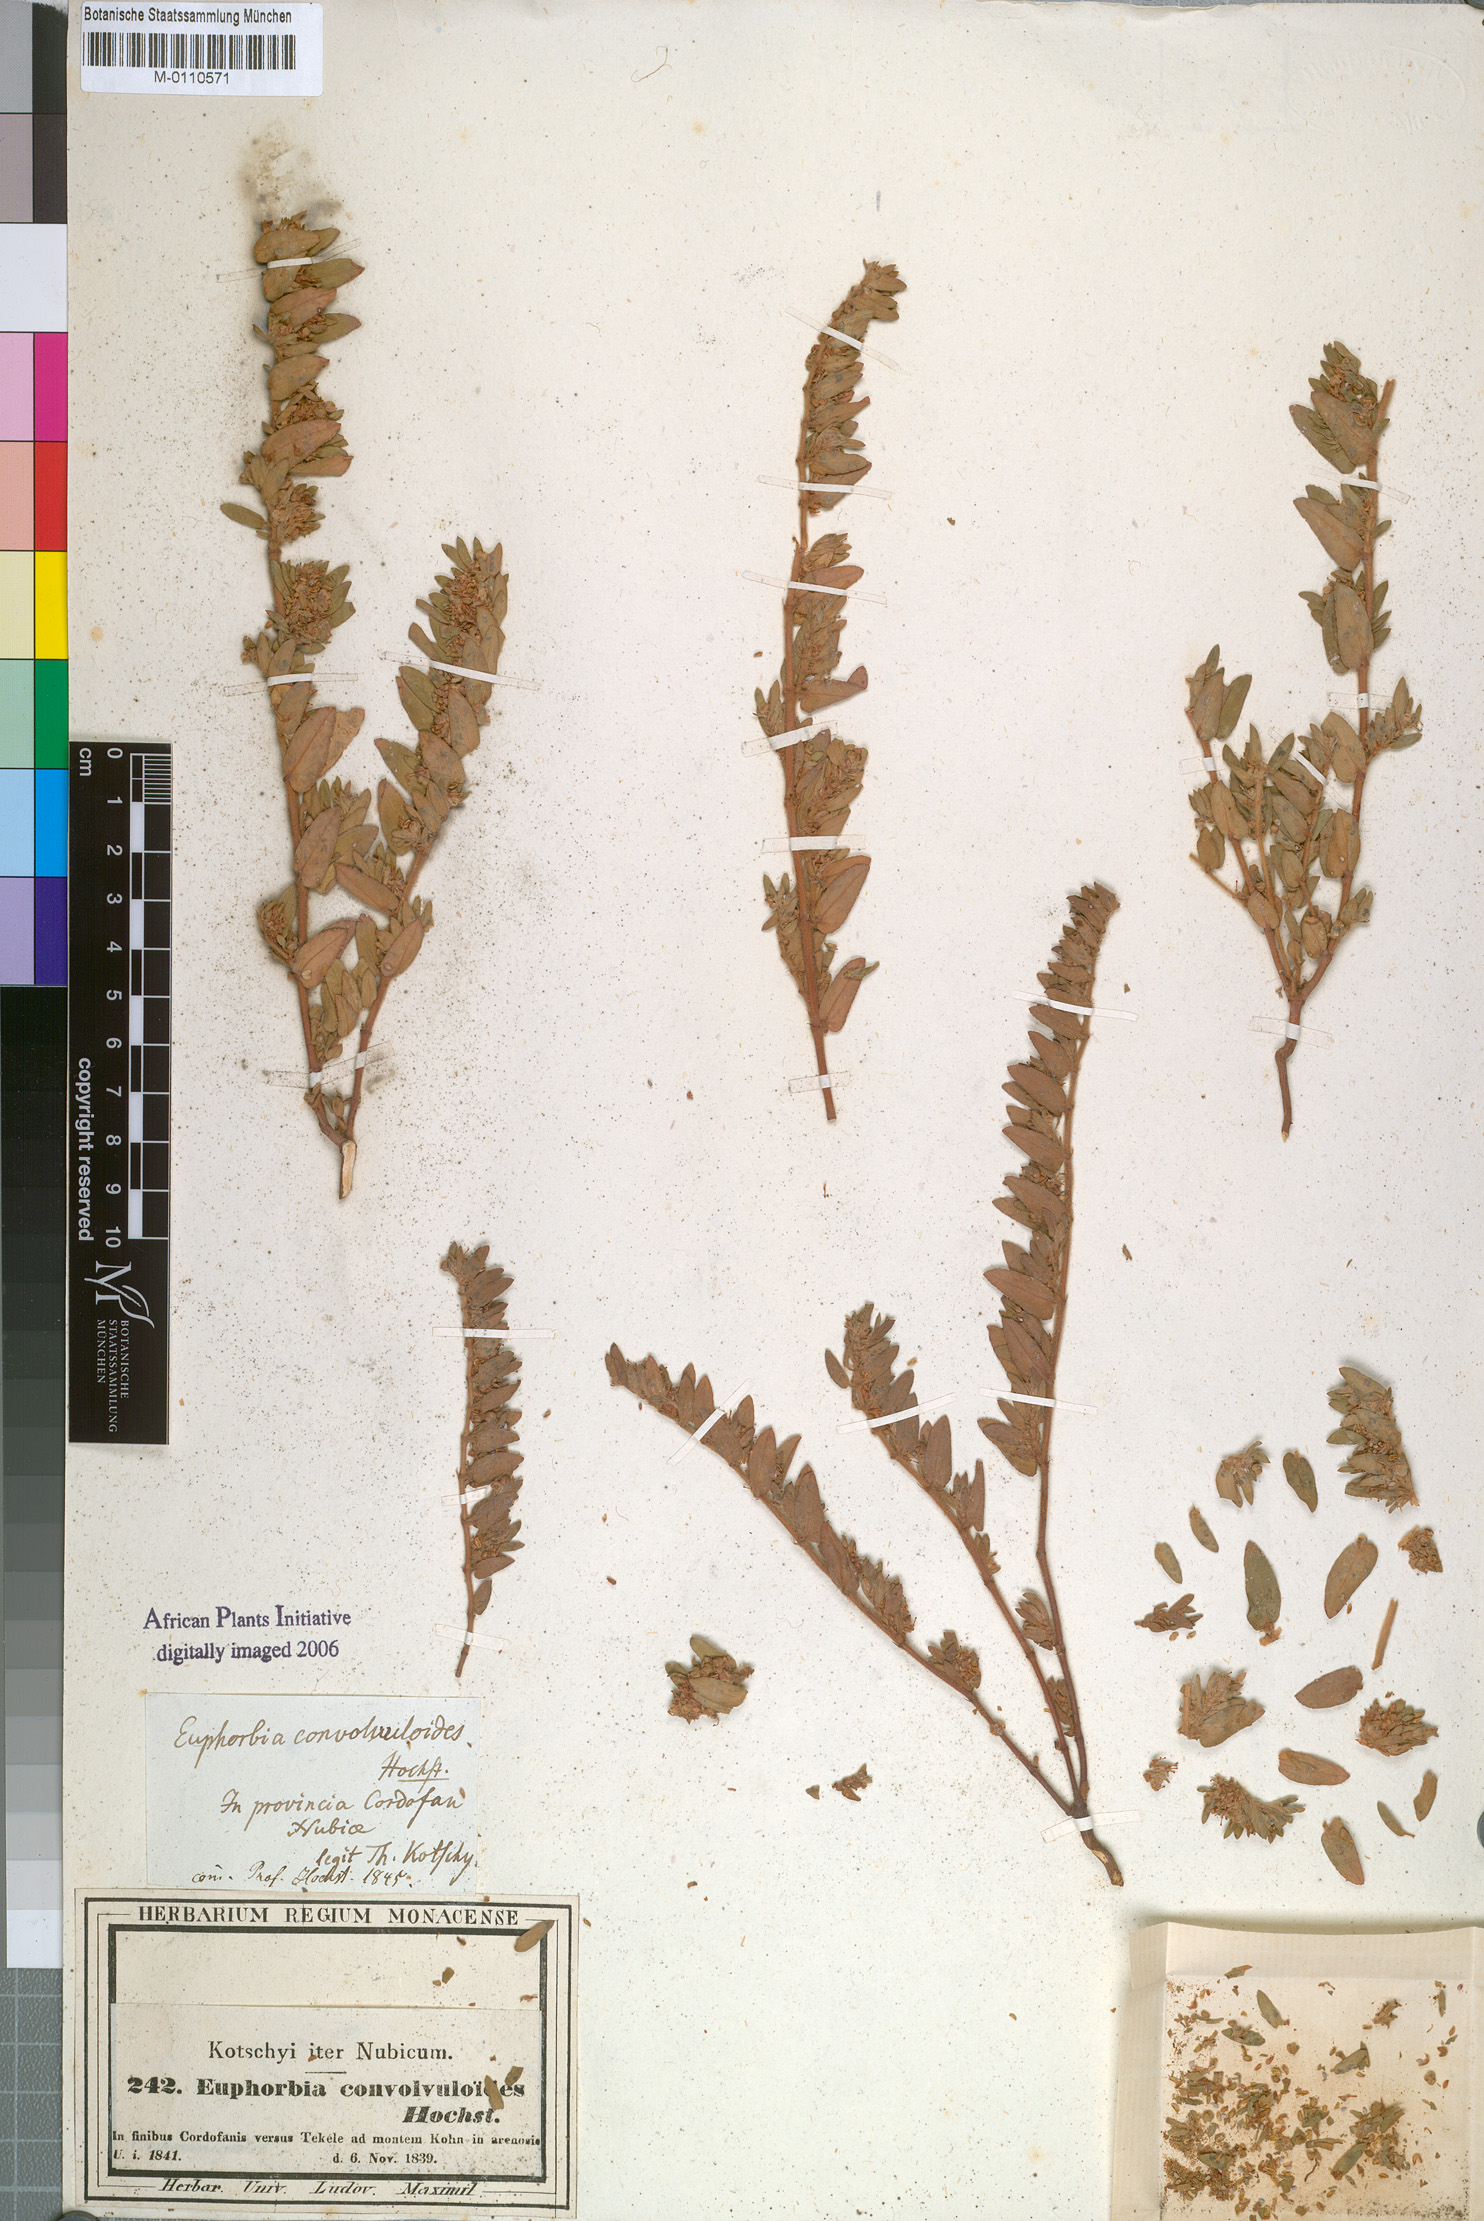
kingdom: Plantae
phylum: Tracheophyta
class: Magnoliopsida
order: Malpighiales
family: Euphorbiaceae
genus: Euphorbia
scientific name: Euphorbia convolvuloides
